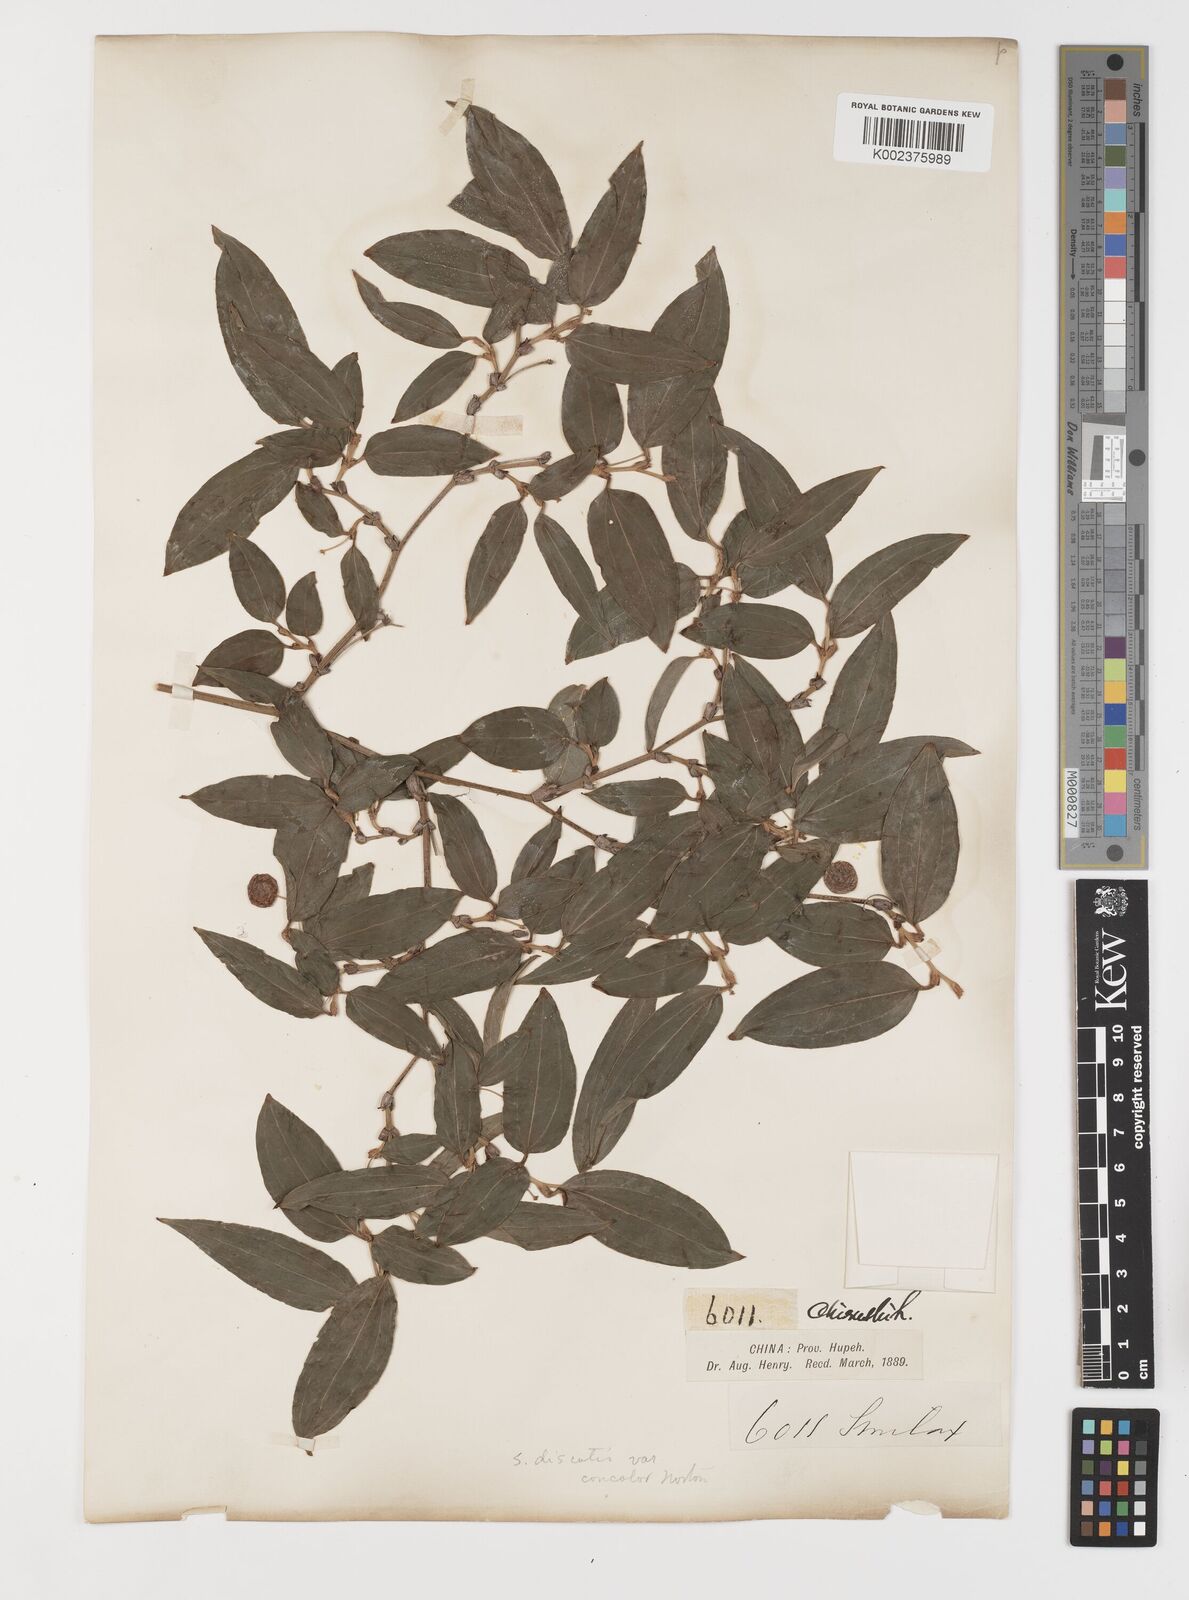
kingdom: Plantae
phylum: Tracheophyta
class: Liliopsida
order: Liliales
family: Smilacaceae
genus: Smilax
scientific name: Smilax discotis
